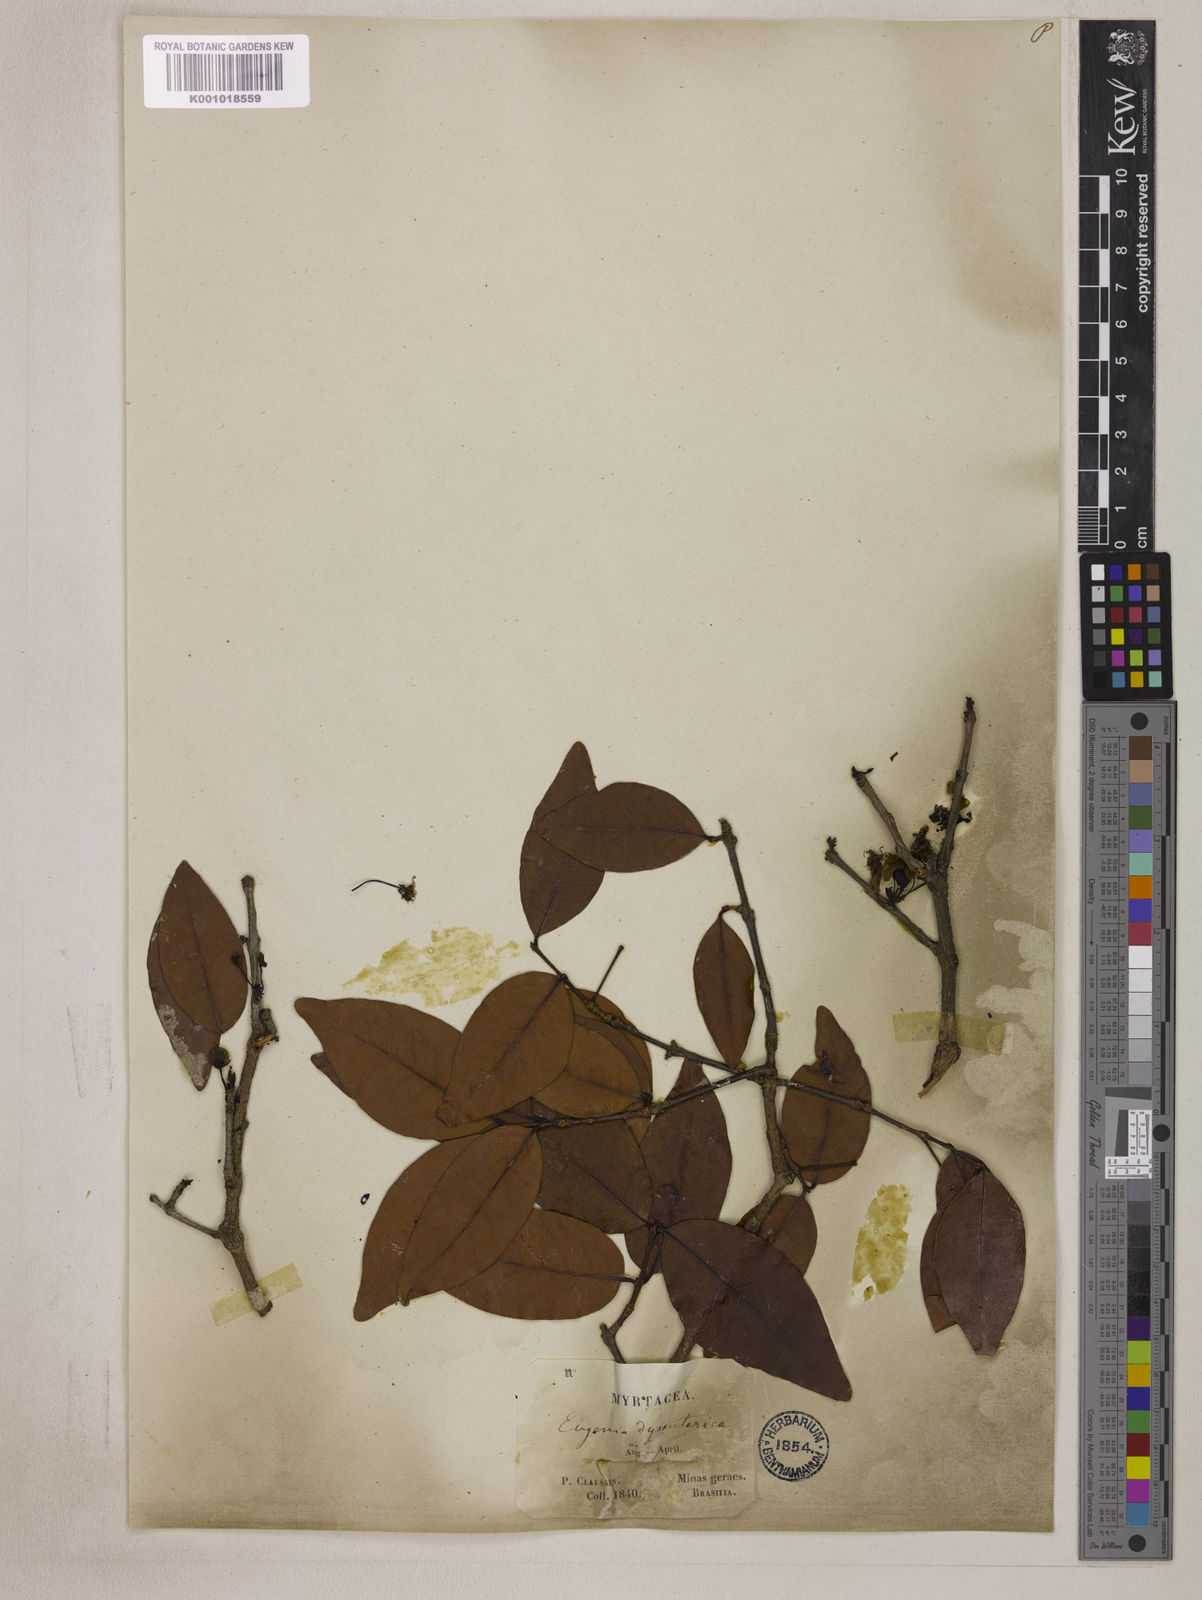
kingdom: Plantae
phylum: Tracheophyta
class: Magnoliopsida
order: Myrtales
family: Myrtaceae
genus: Eugenia
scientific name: Eugenia dysenterica
